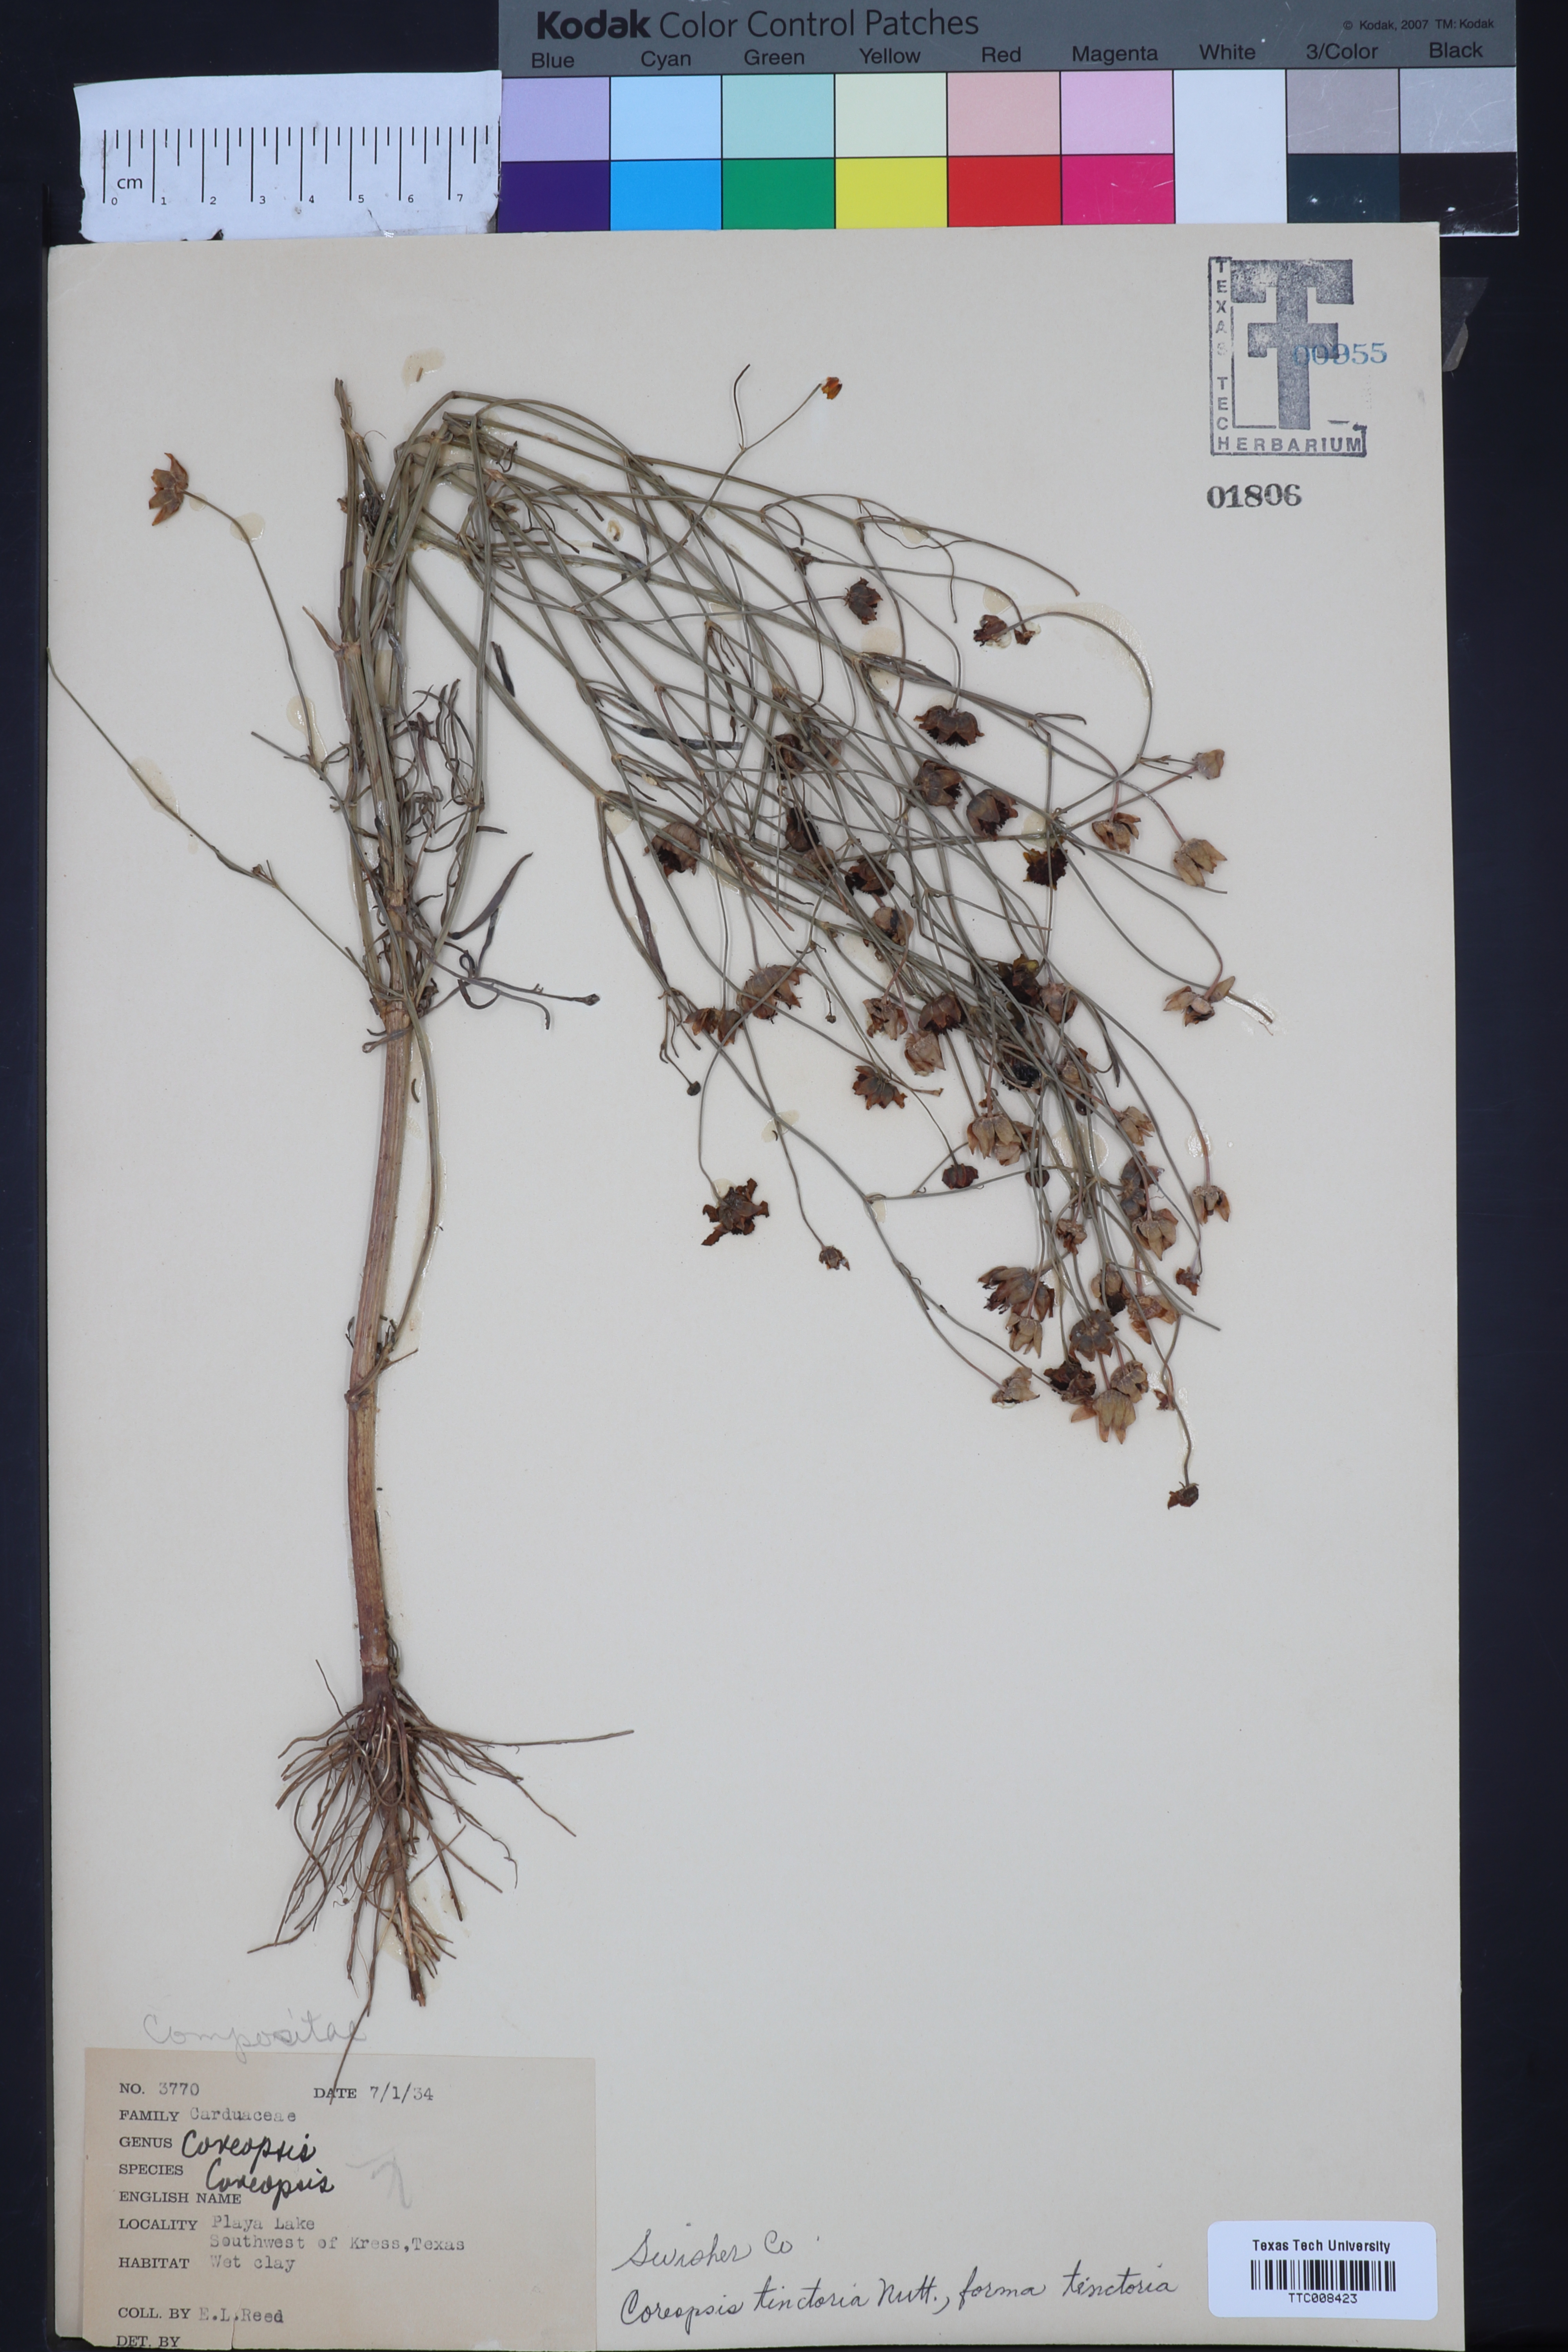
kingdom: Plantae
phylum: Tracheophyta
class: Magnoliopsida
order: Asterales
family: Asteraceae
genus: Coreopsis
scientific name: Coreopsis tinctoria
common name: Garden tickseed
